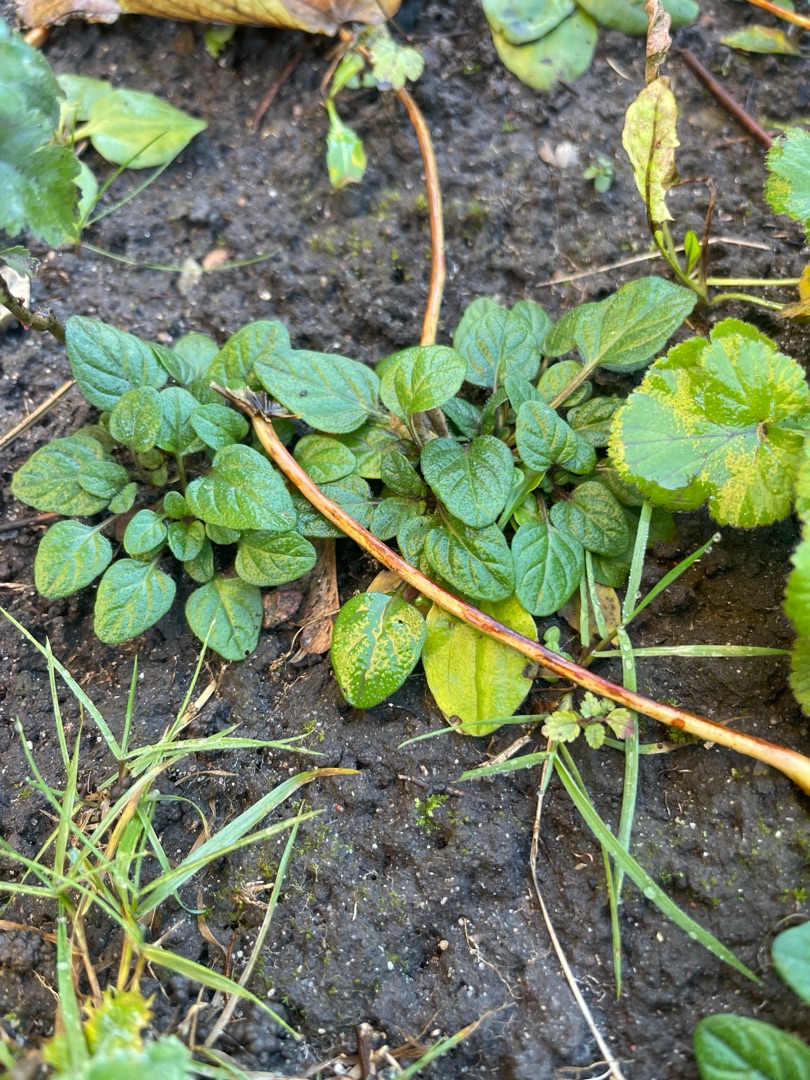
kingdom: Plantae
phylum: Tracheophyta
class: Magnoliopsida
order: Lamiales
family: Lamiaceae
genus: Prunella
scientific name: Prunella vulgaris
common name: Almindelig brunelle
